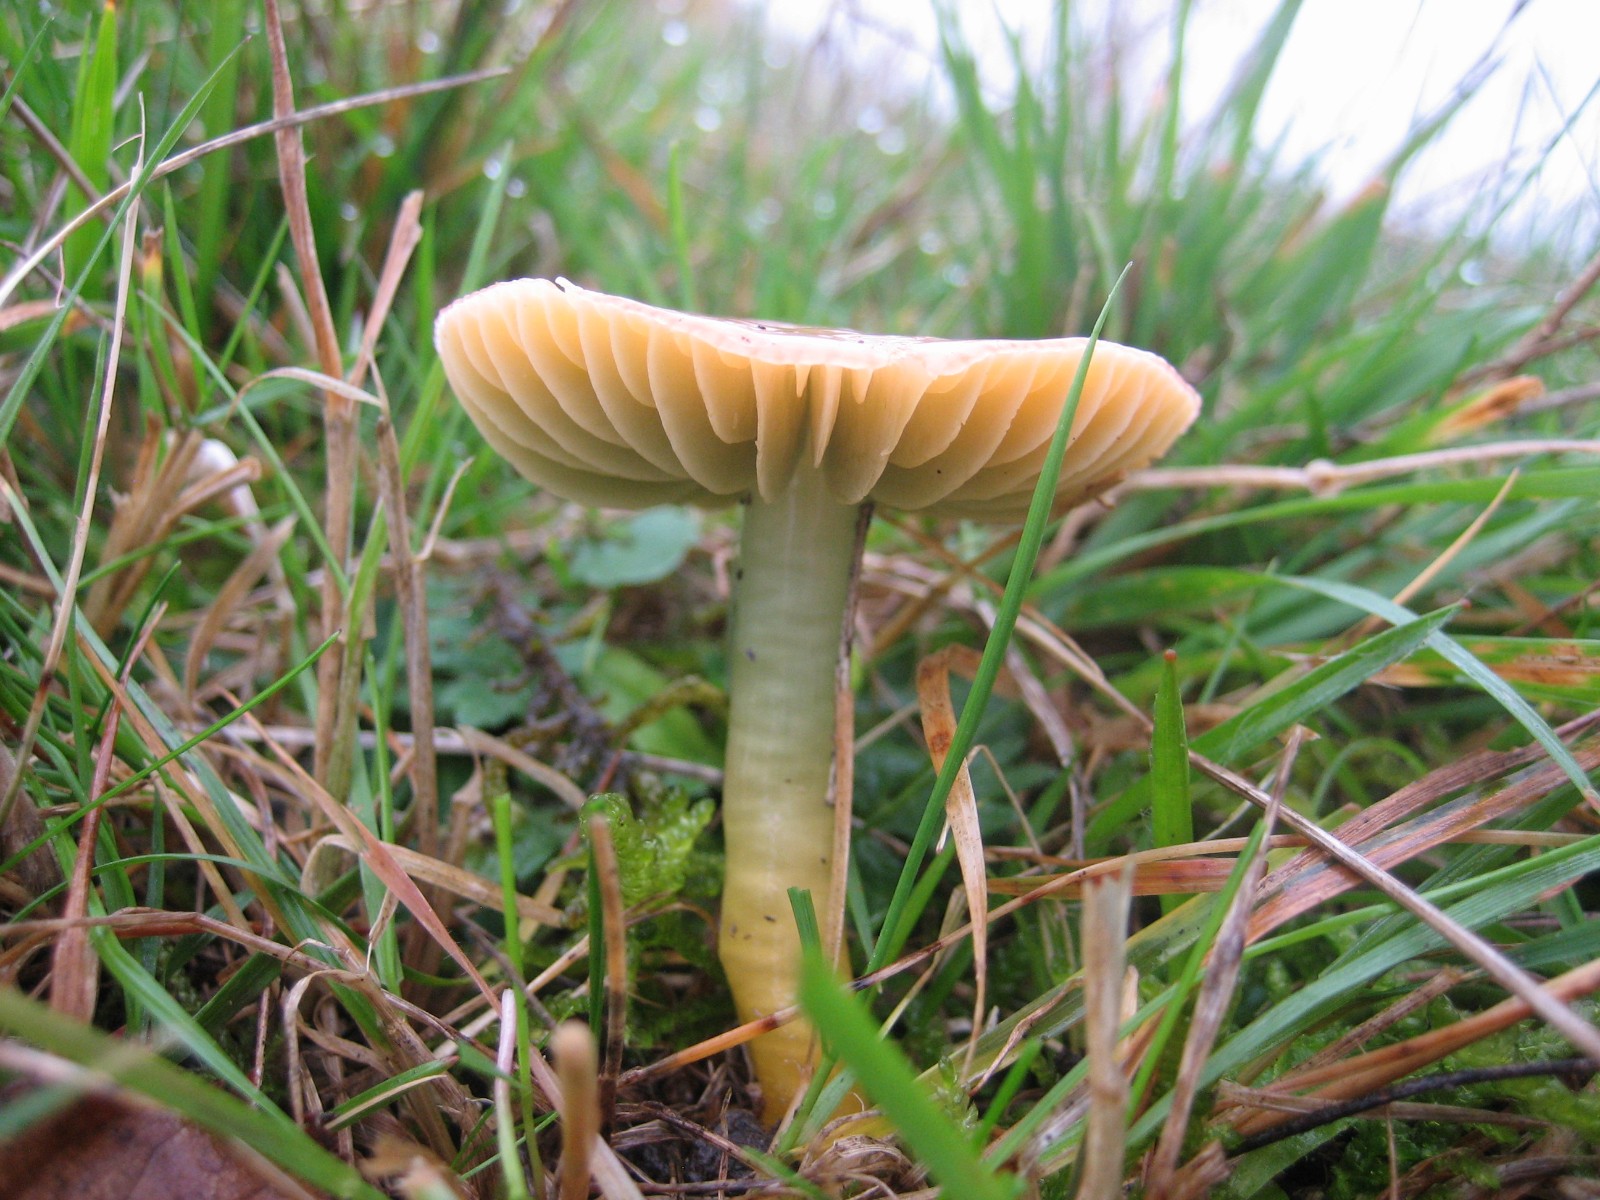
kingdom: Fungi
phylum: Basidiomycota
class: Agaricomycetes
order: Agaricales
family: Hygrophoraceae
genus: Gliophorus
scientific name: Gliophorus psittacinus
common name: papegøje-vokshat
